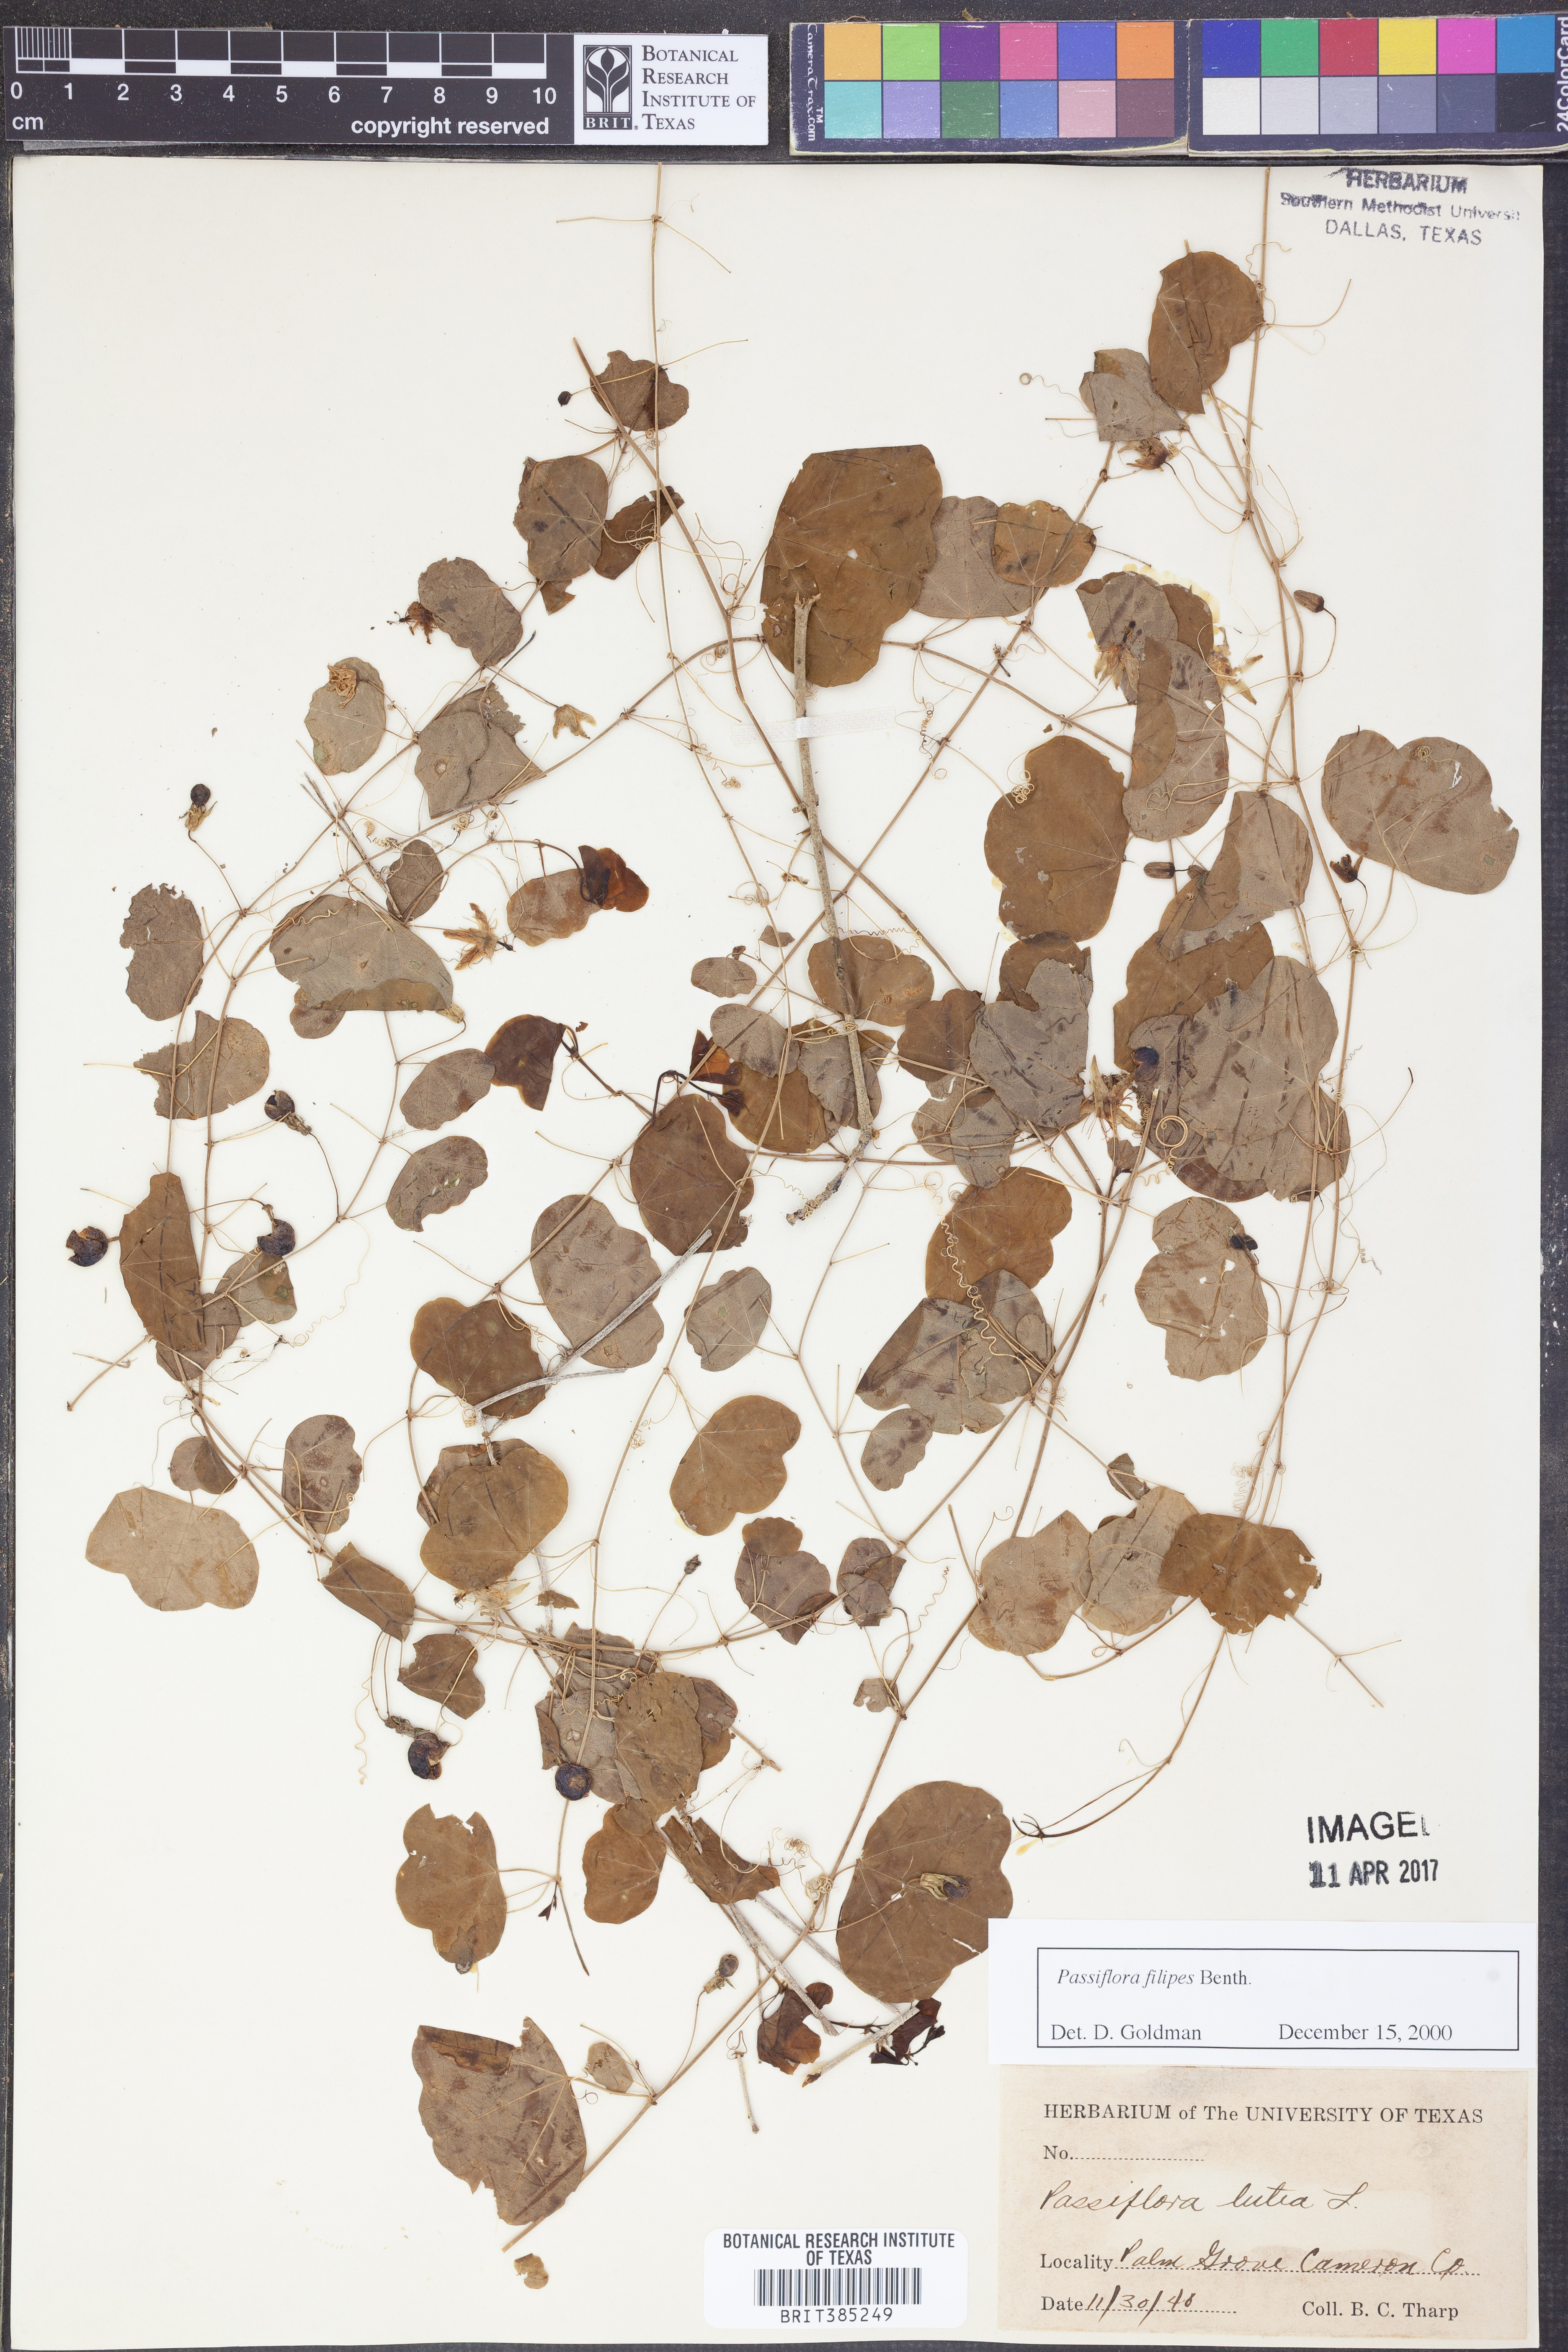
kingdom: Plantae
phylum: Tracheophyta
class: Magnoliopsida
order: Malpighiales
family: Passifloraceae
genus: Passiflora
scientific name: Passiflora filipes
